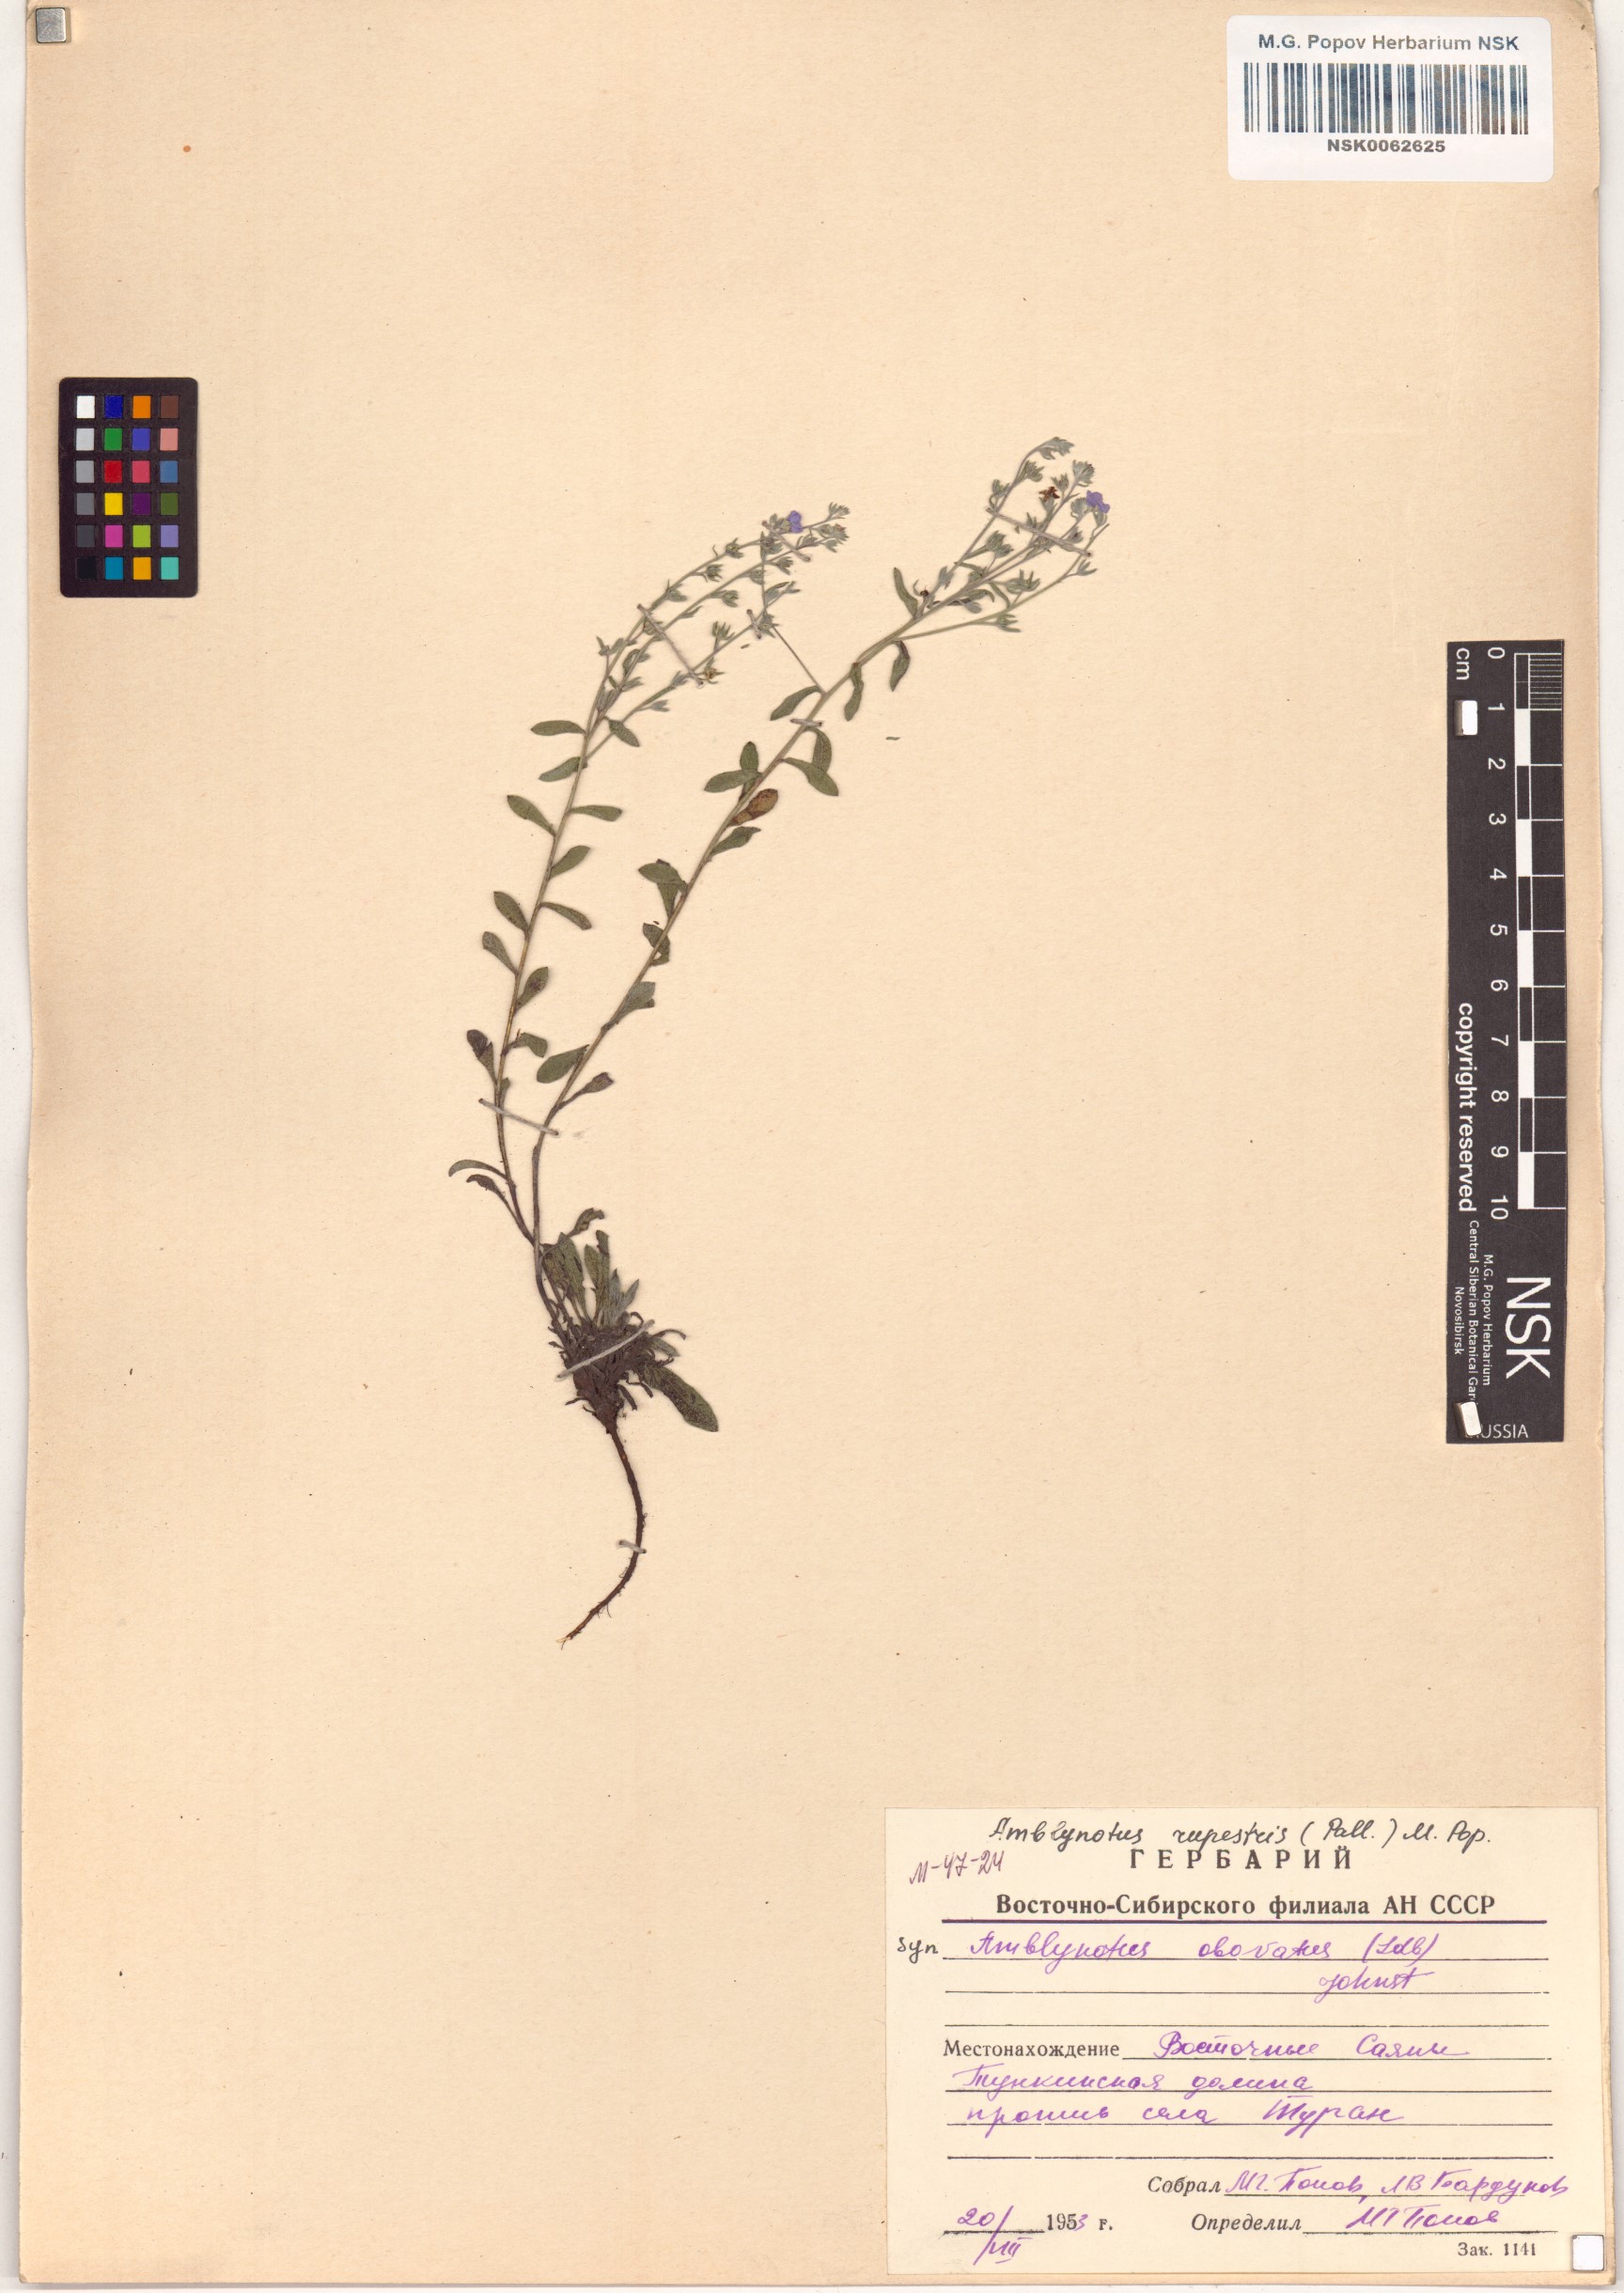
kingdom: Plantae
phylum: Tracheophyta
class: Magnoliopsida
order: Boraginales
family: Boraginaceae
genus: Eritrichium
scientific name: Eritrichium rupestre
